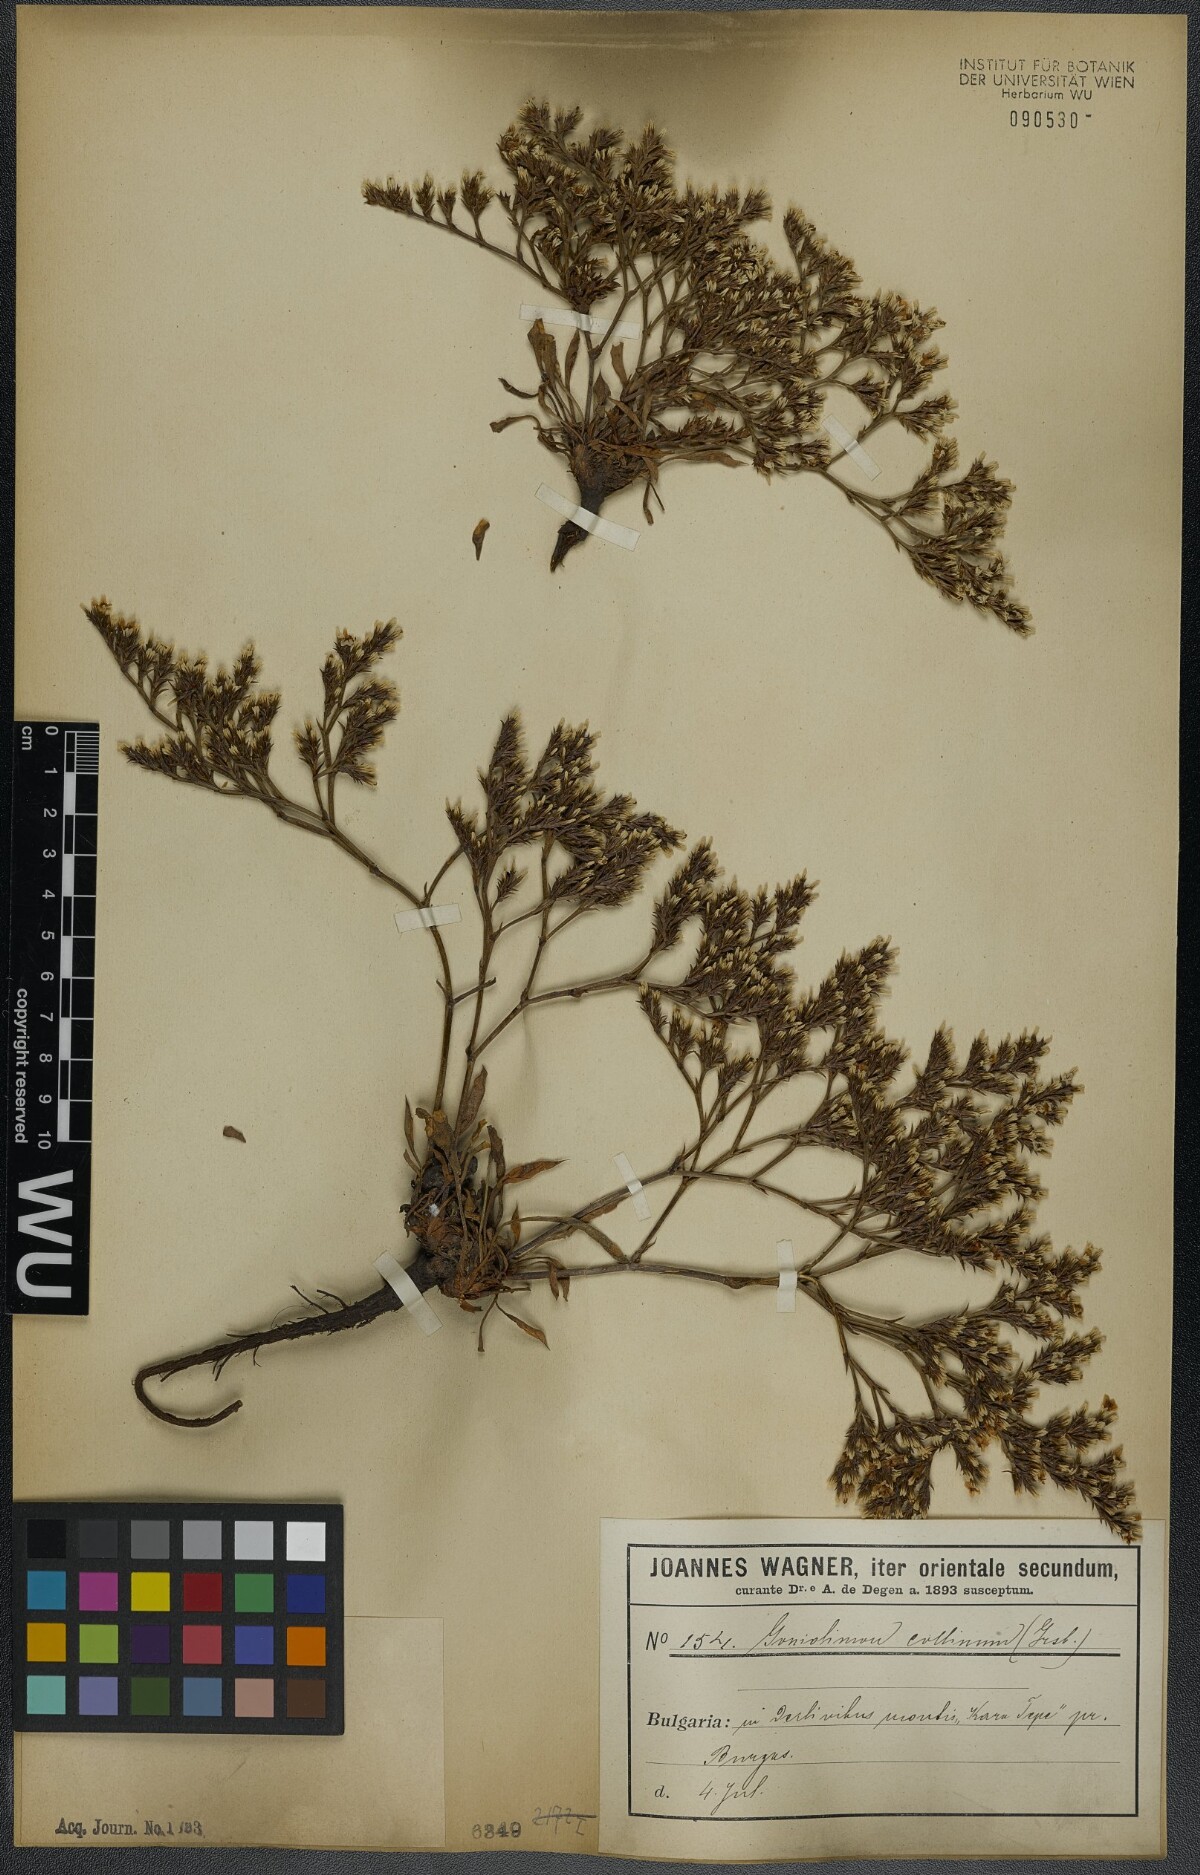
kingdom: Plantae
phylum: Tracheophyta
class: Magnoliopsida
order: Caryophyllales
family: Plumbaginaceae
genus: Goniolimon
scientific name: Goniolimon incanum
